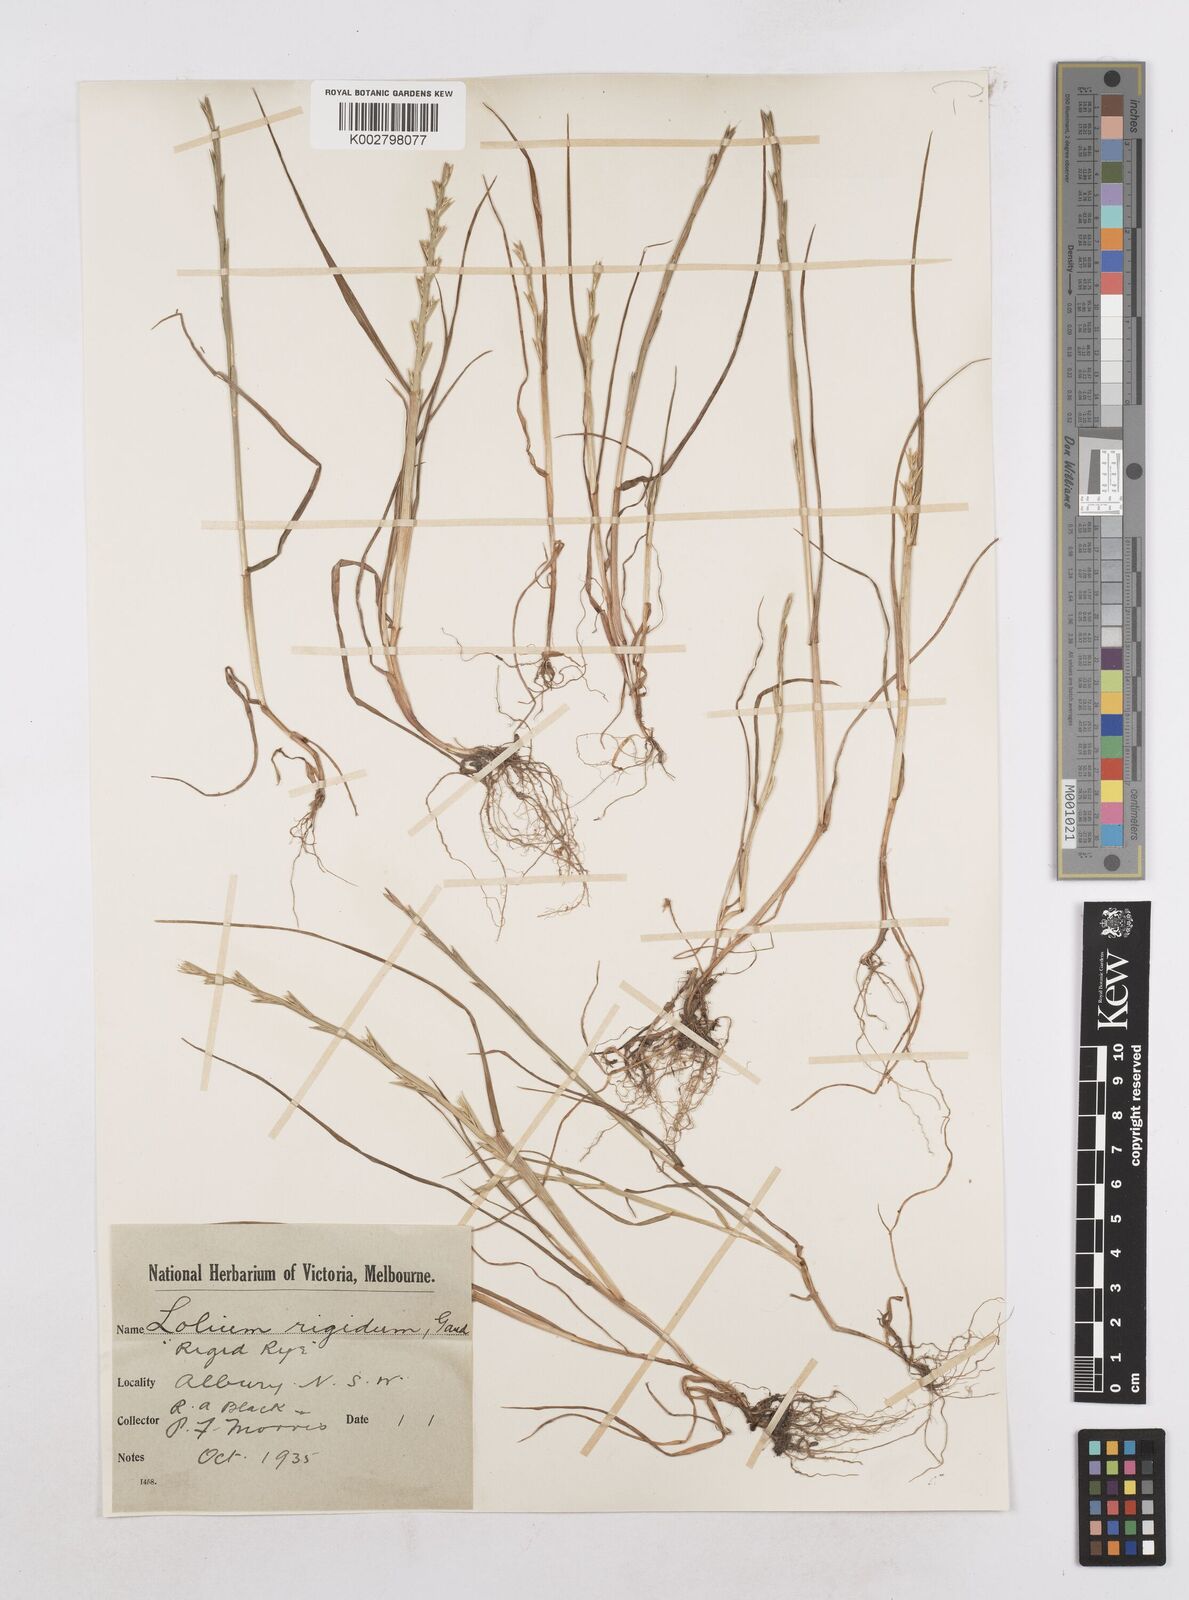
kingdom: Plantae
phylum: Tracheophyta
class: Liliopsida
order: Poales
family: Poaceae
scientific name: Poaceae
